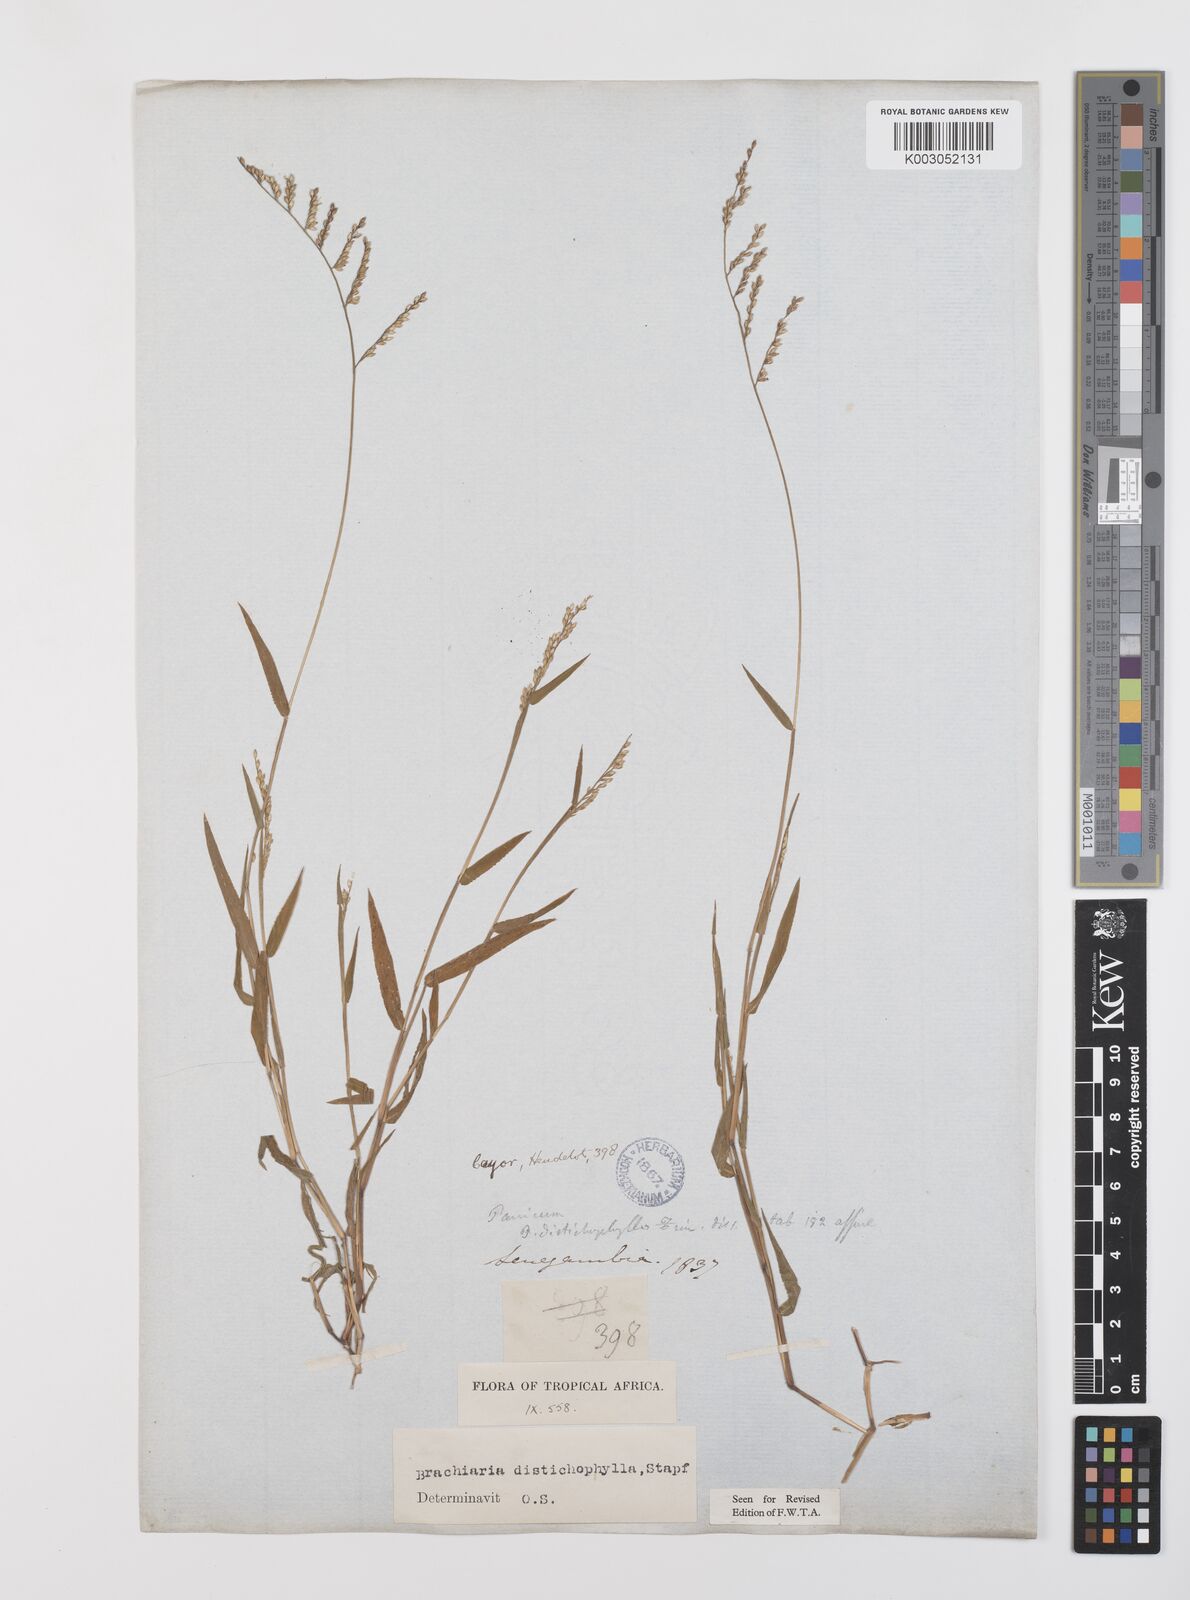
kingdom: Plantae
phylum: Tracheophyta
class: Liliopsida
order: Poales
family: Poaceae
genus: Urochloa
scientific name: Urochloa villosa
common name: Hairy signalgrass
